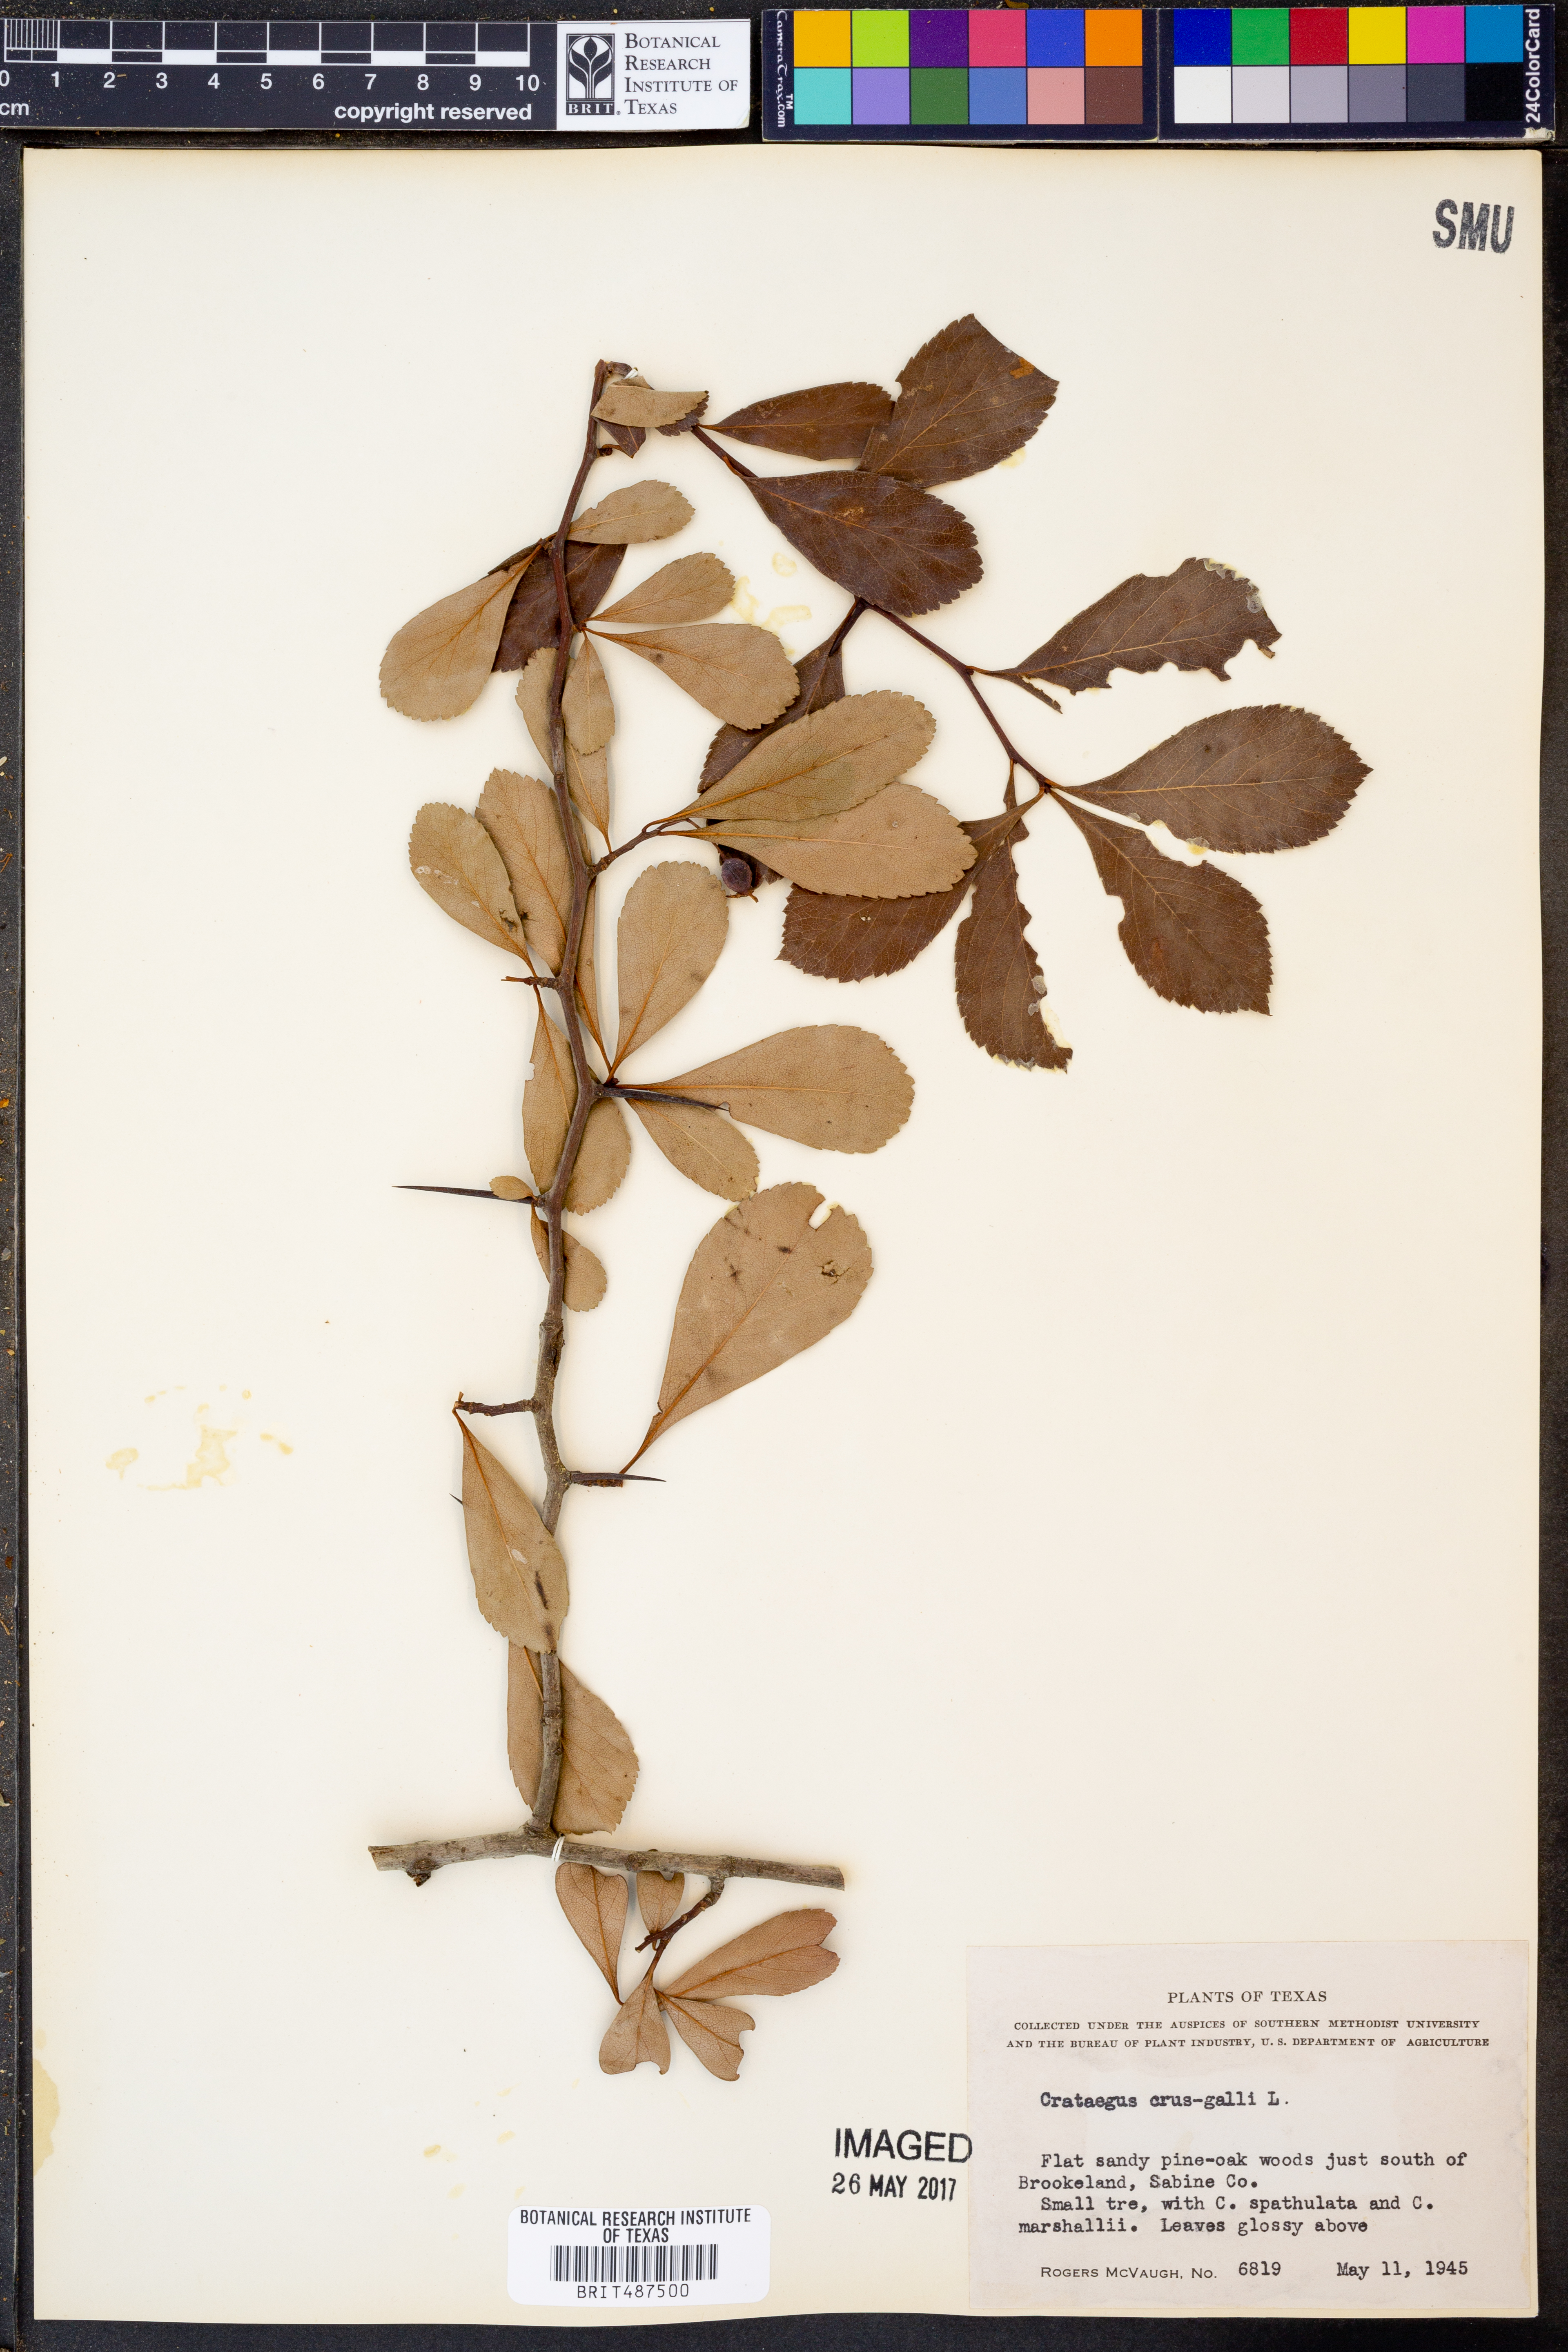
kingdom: Plantae
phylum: Tracheophyta
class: Magnoliopsida
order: Rosales
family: Rosaceae
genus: Crataegus
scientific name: Crataegus crus-galli
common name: Cockspurthorn
